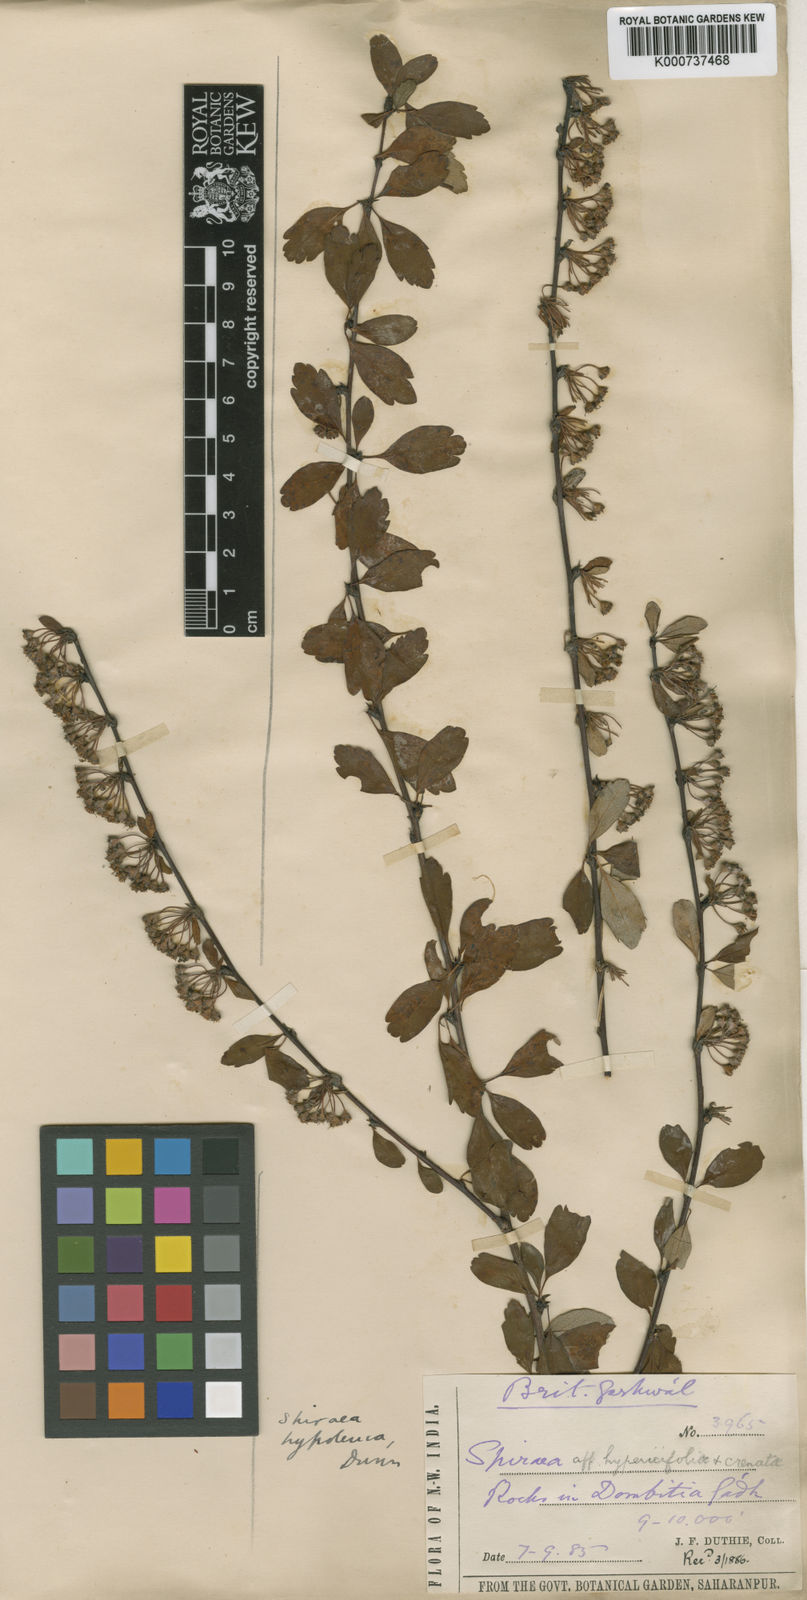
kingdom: Plantae
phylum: Tracheophyta
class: Magnoliopsida
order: Rosales
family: Rosaceae
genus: Spiraea
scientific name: Spiraea hypoleuca
